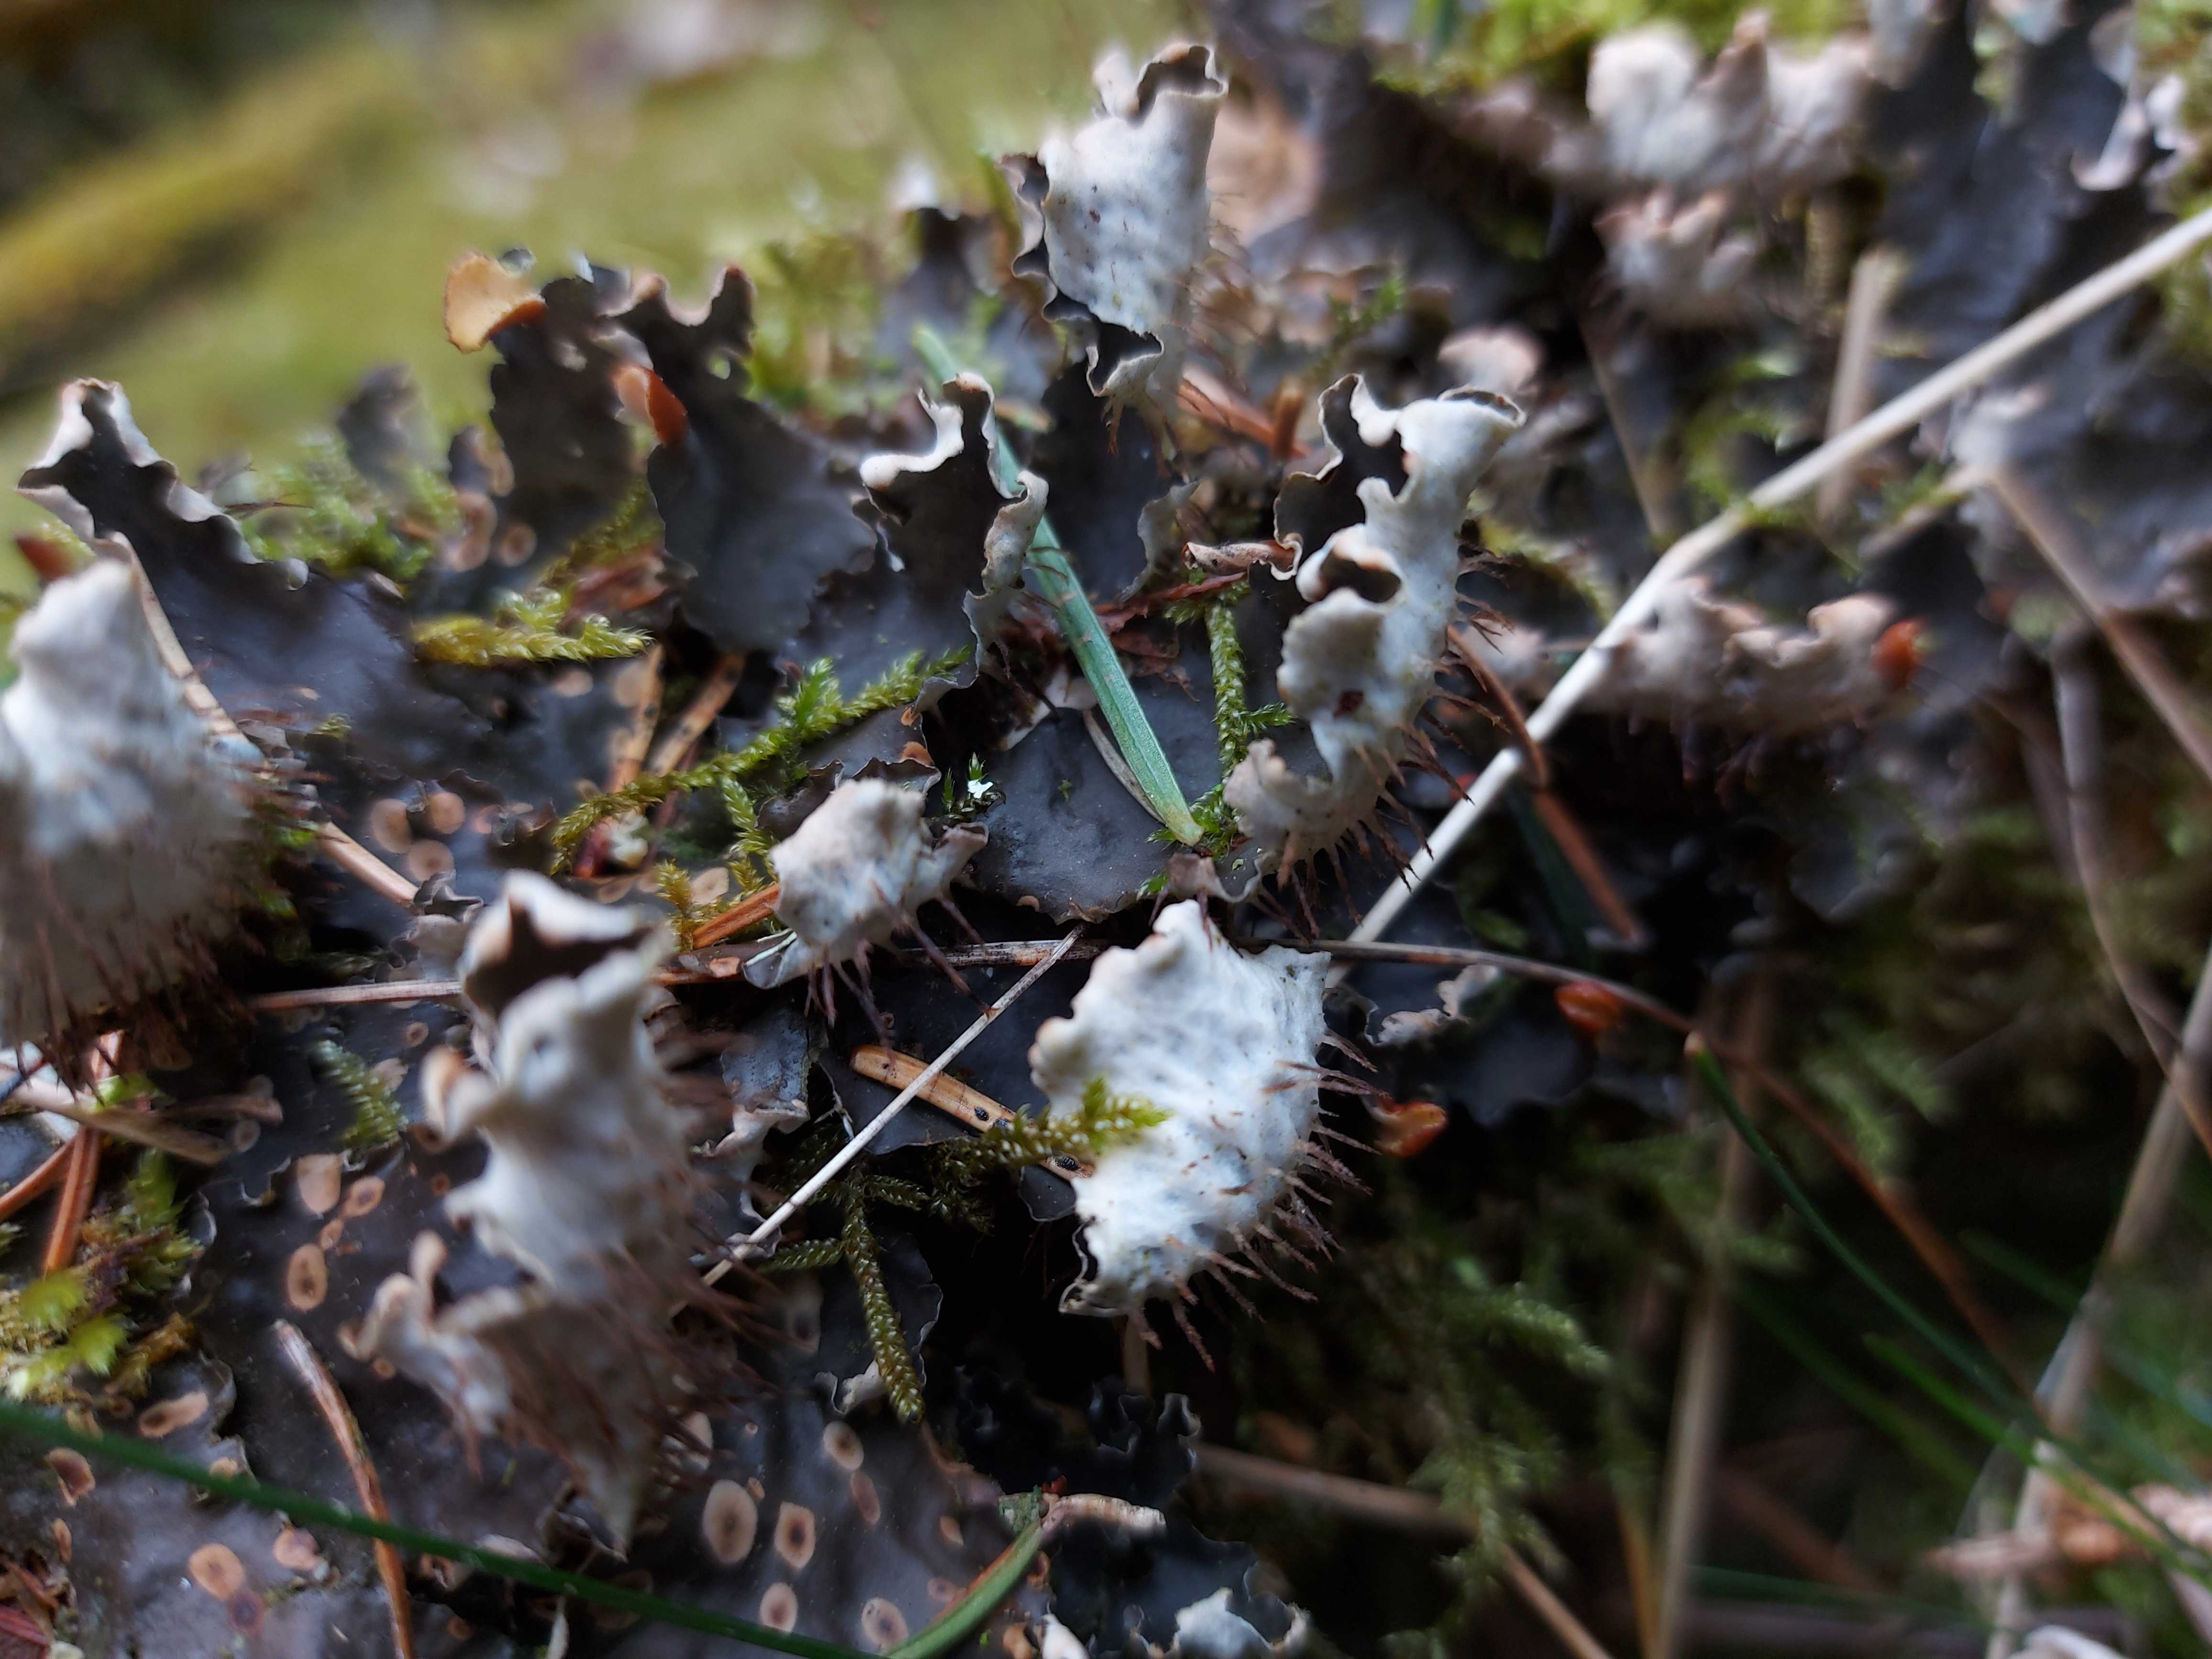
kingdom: Fungi
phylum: Ascomycota
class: Lecanoromycetes
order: Peltigerales
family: Peltigeraceae
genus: Peltigera
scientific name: Peltigera hymenina
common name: hinde-skjoldlav
